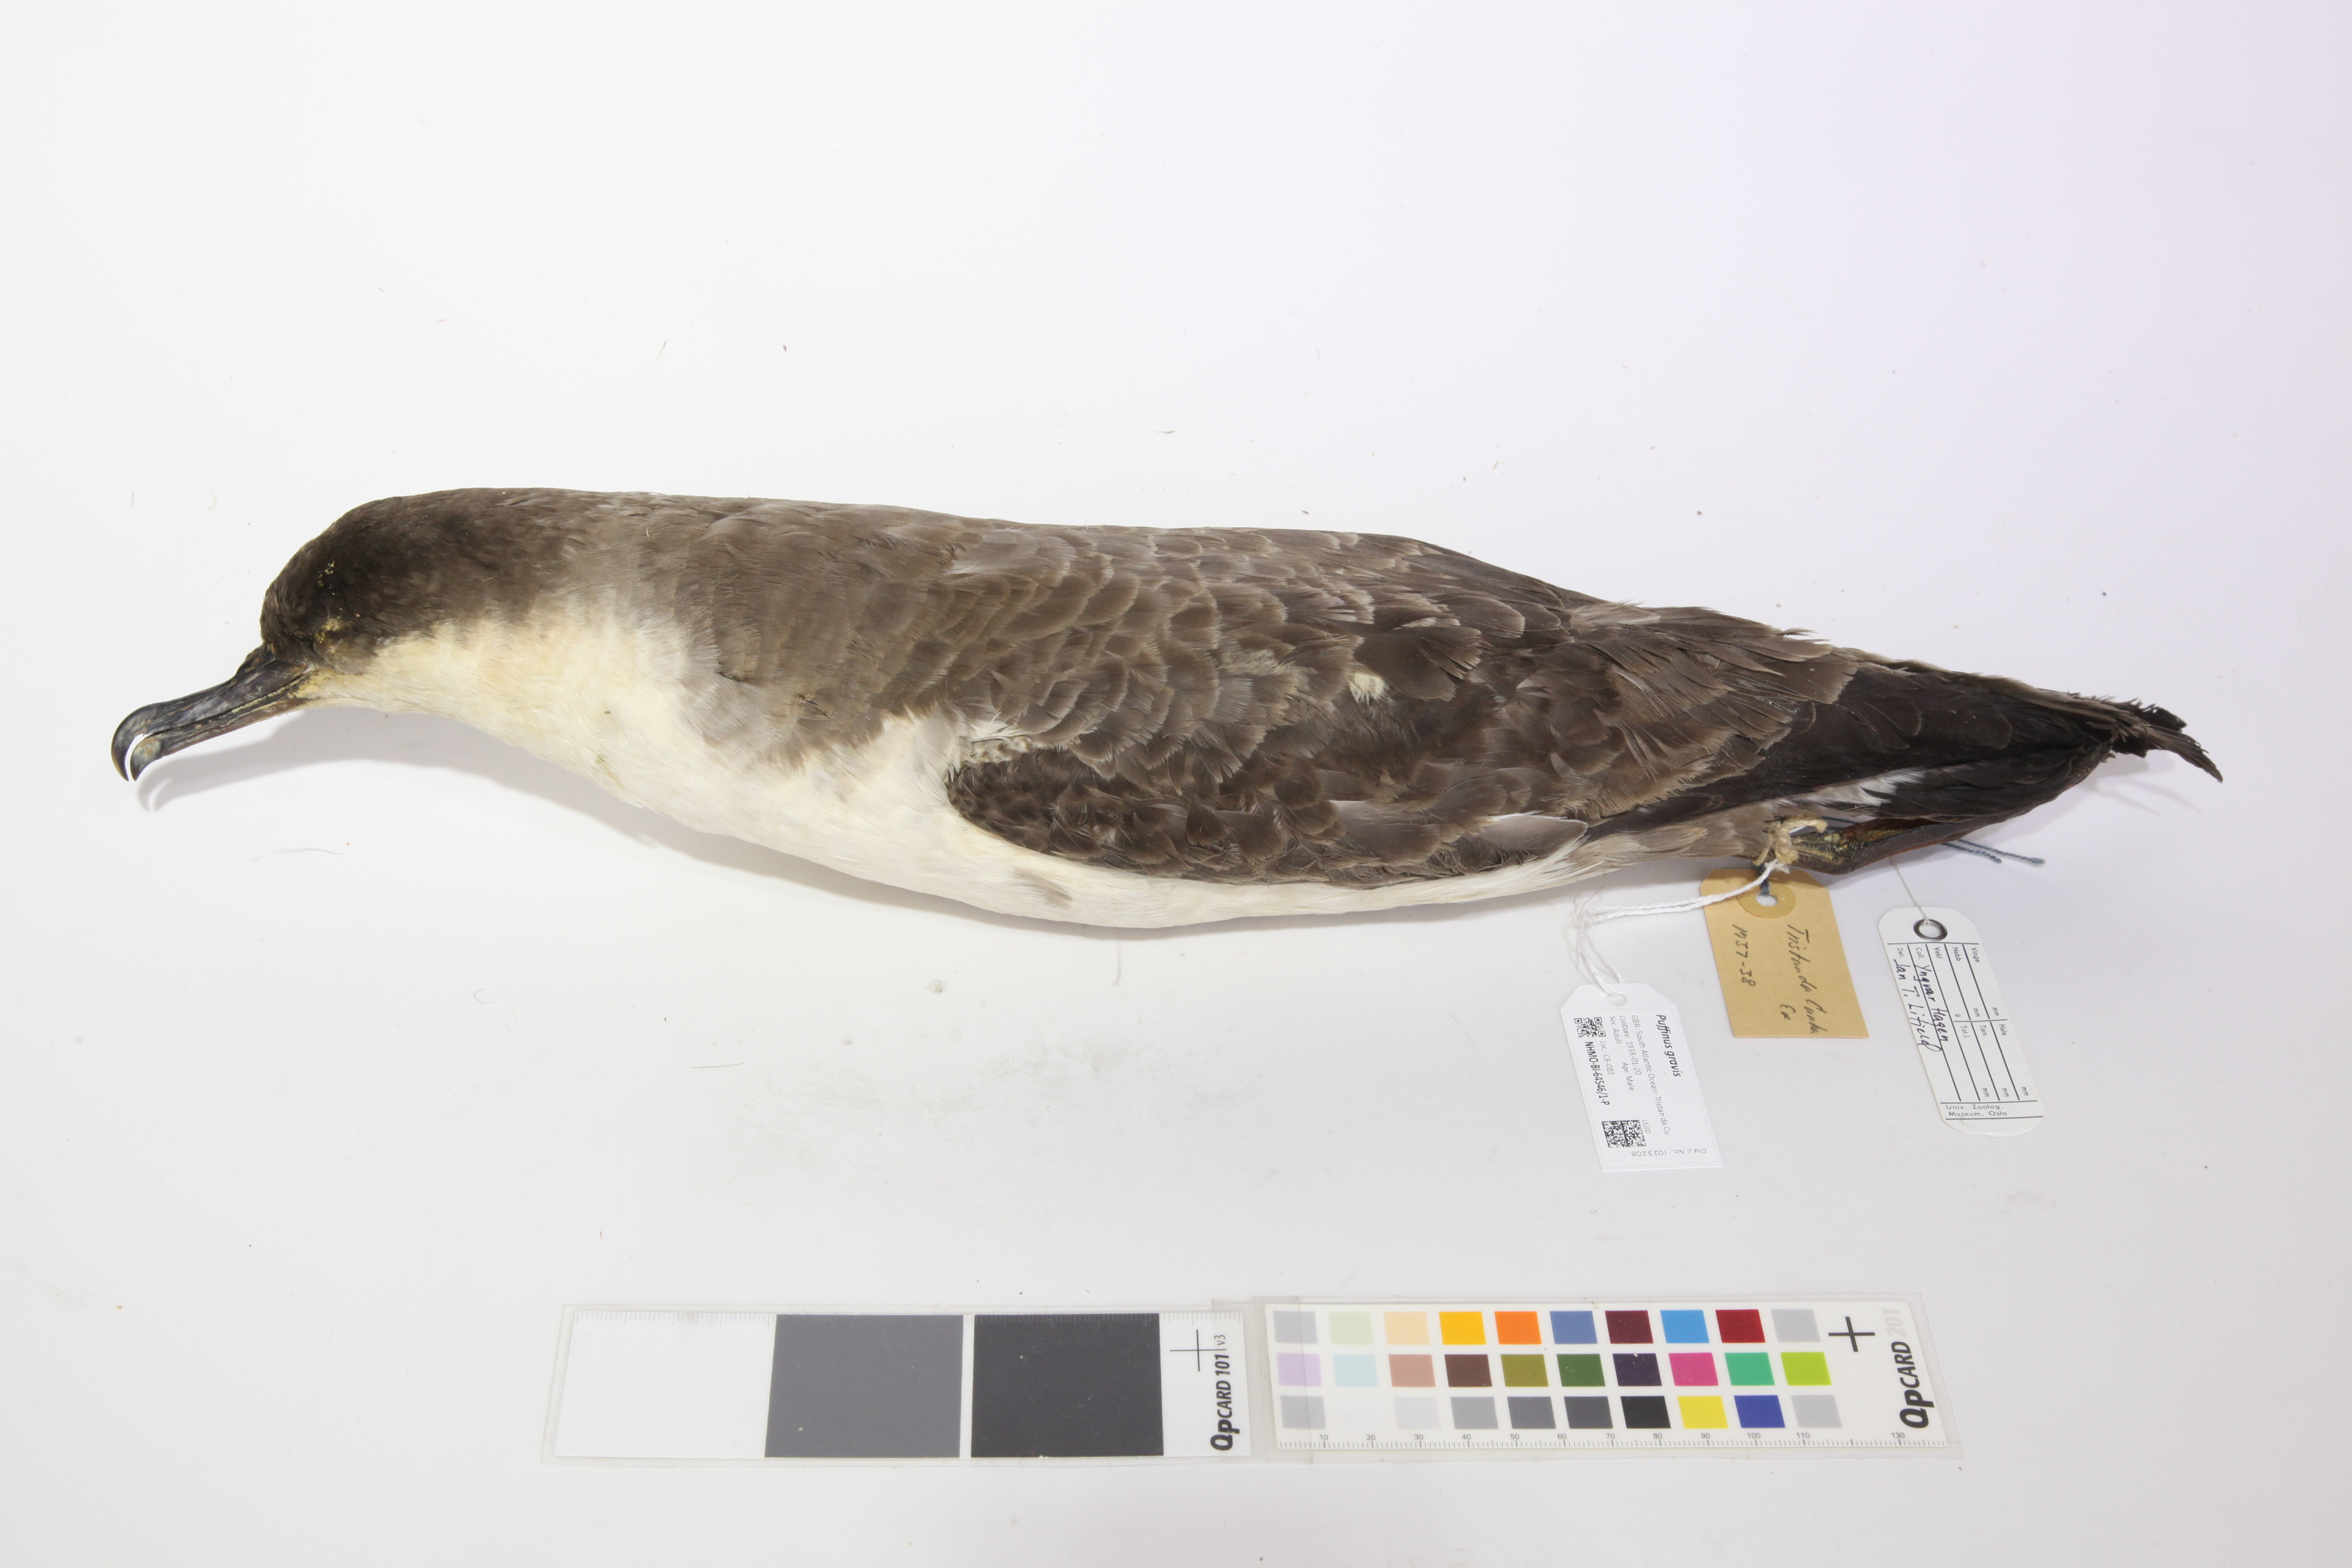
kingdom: Animalia
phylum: Chordata
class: Aves
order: Procellariiformes
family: Procellariidae
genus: Puffinus
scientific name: Puffinus gravis
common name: Great shearwater
